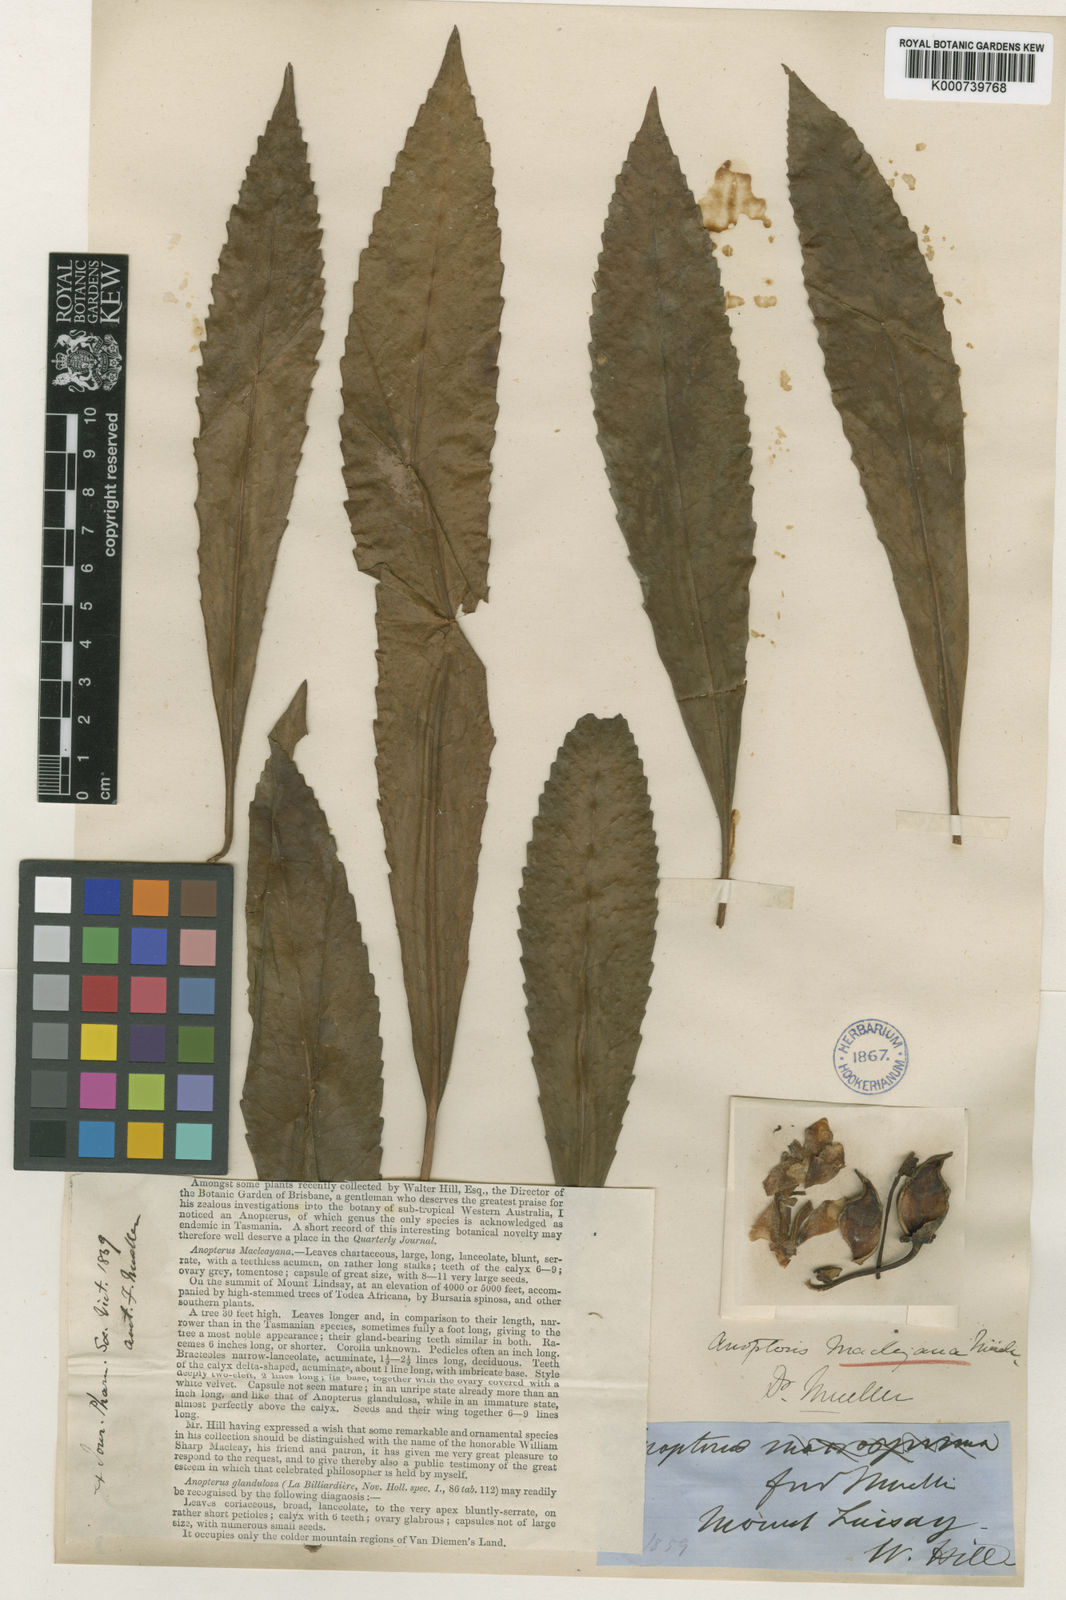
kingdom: Plantae
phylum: Tracheophyta
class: Magnoliopsida
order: Escalloniales
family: Escalloniaceae
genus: Anopterus
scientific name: Anopterus macleayanus
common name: Tasmanian-laurel
